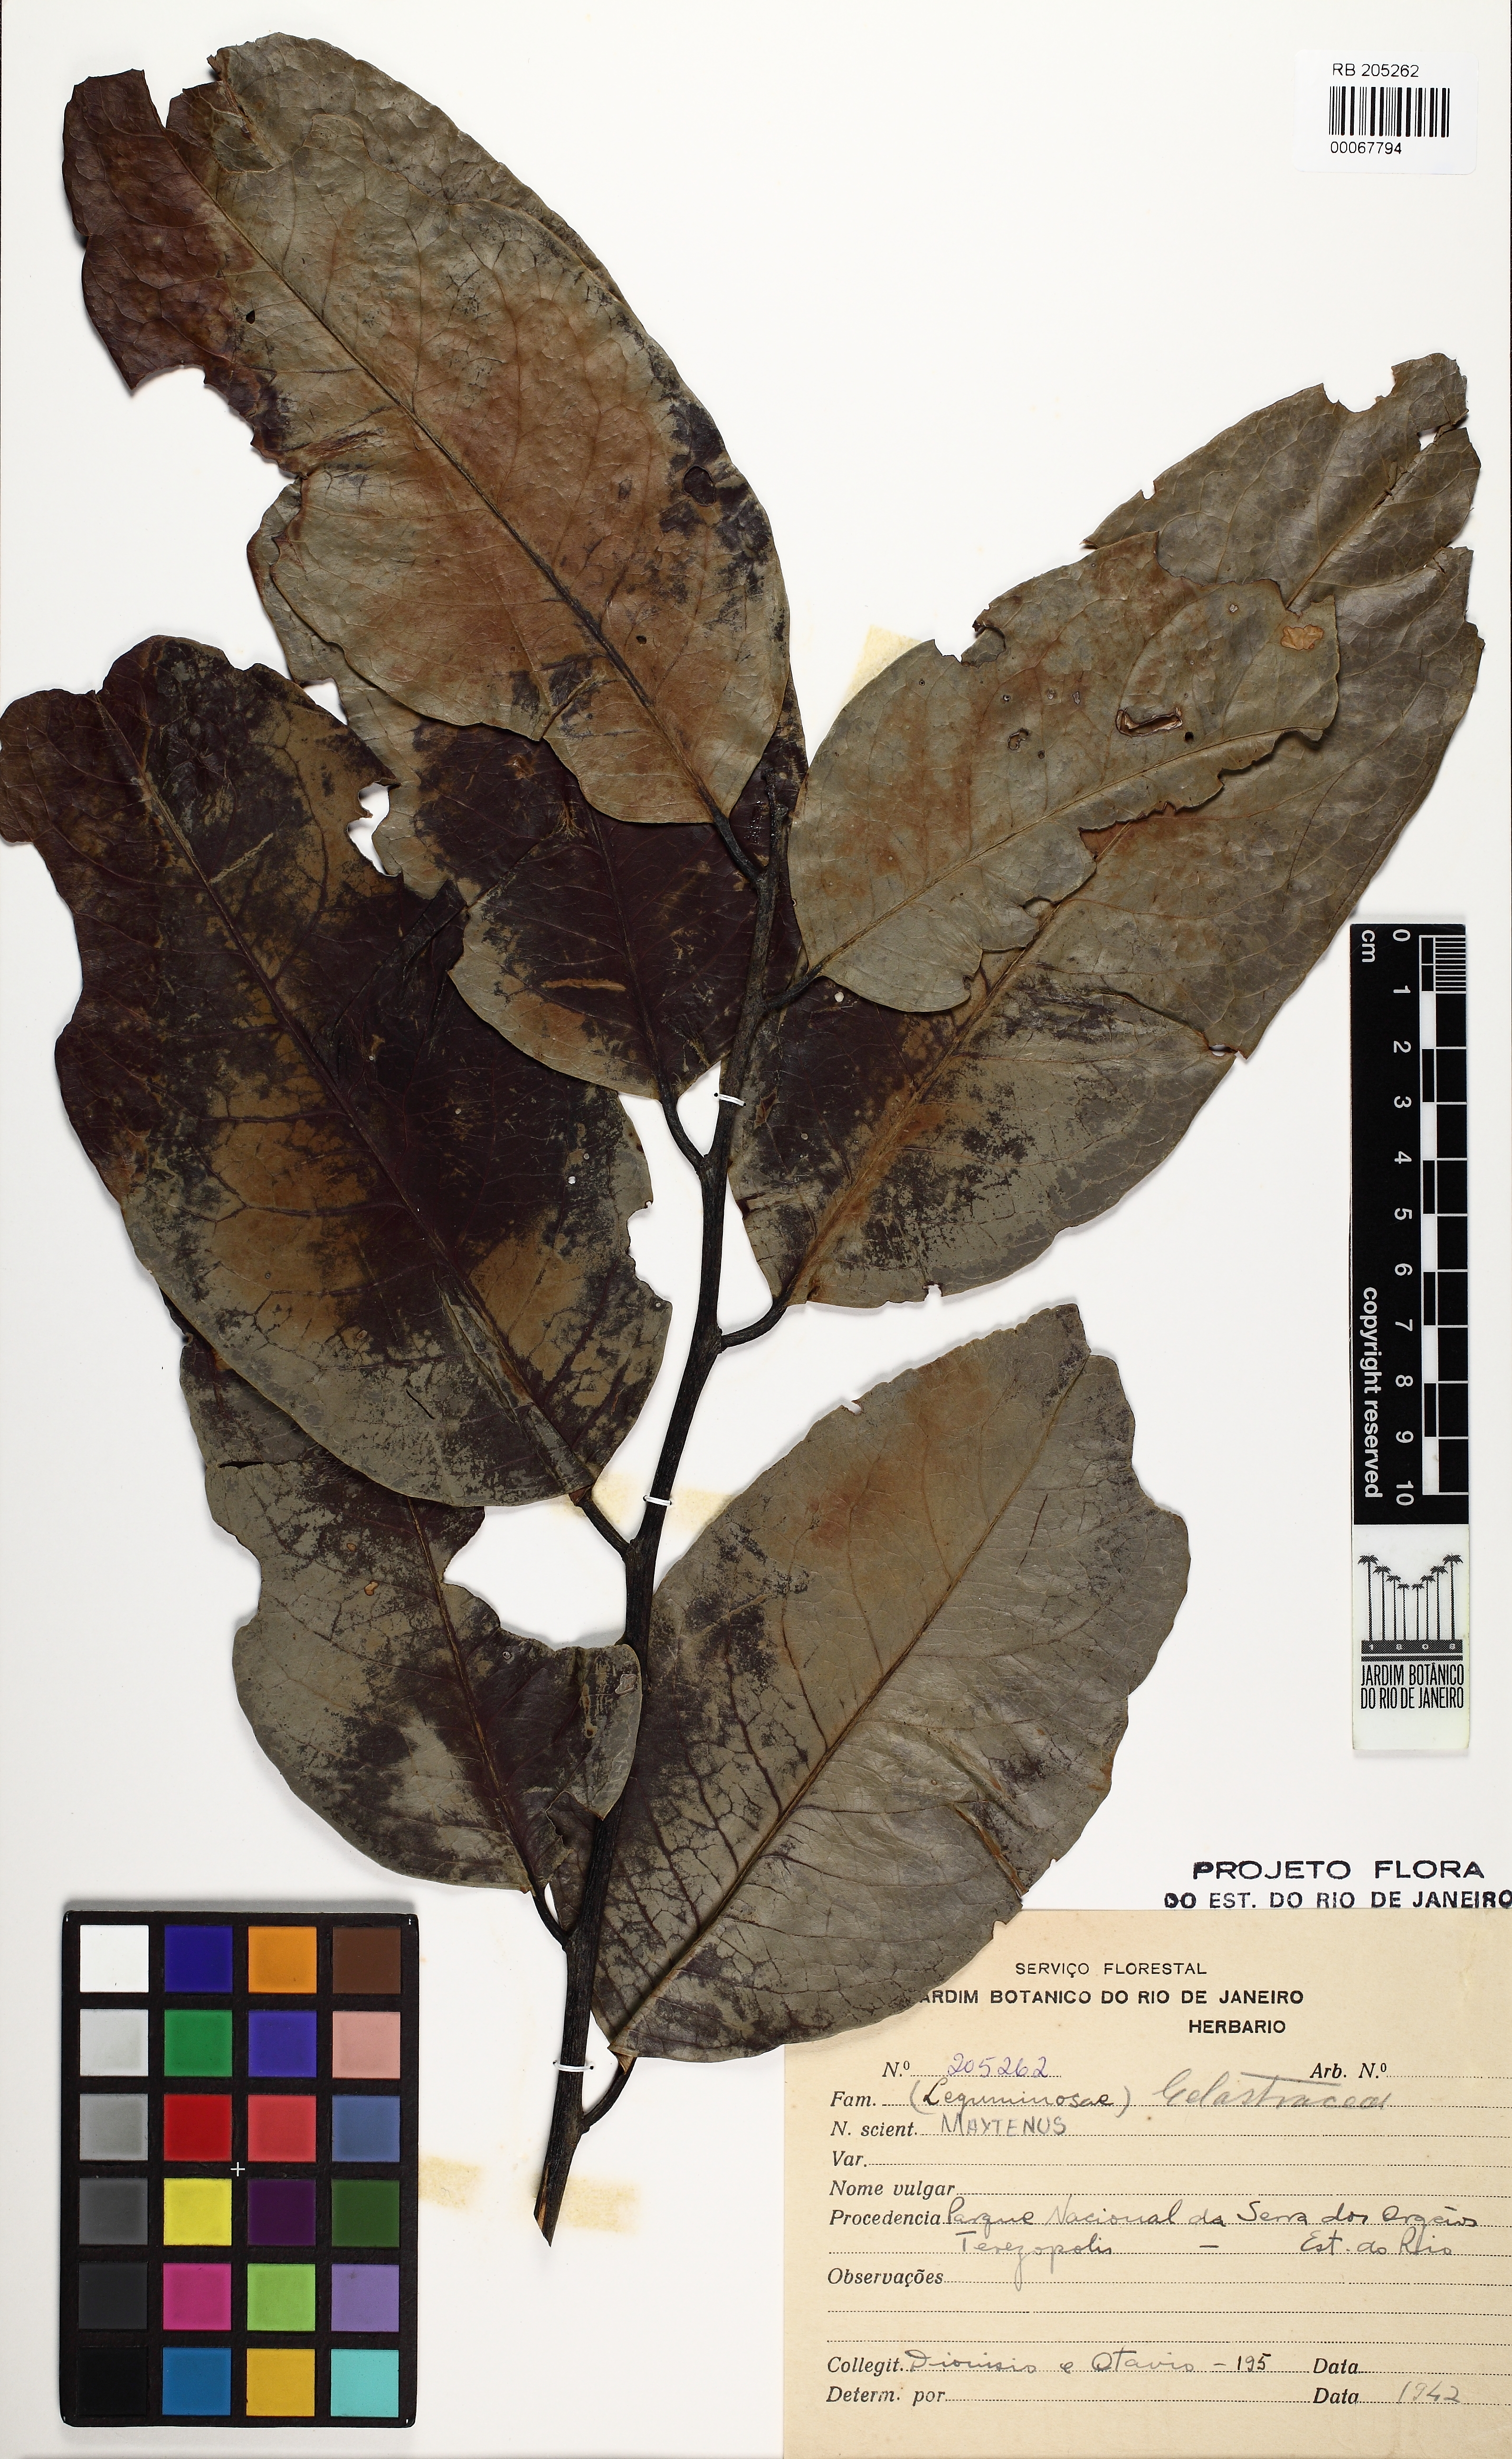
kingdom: Plantae
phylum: Tracheophyta
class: Magnoliopsida
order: Celastrales
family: Celastraceae
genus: Maytenus
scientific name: Maytenus
